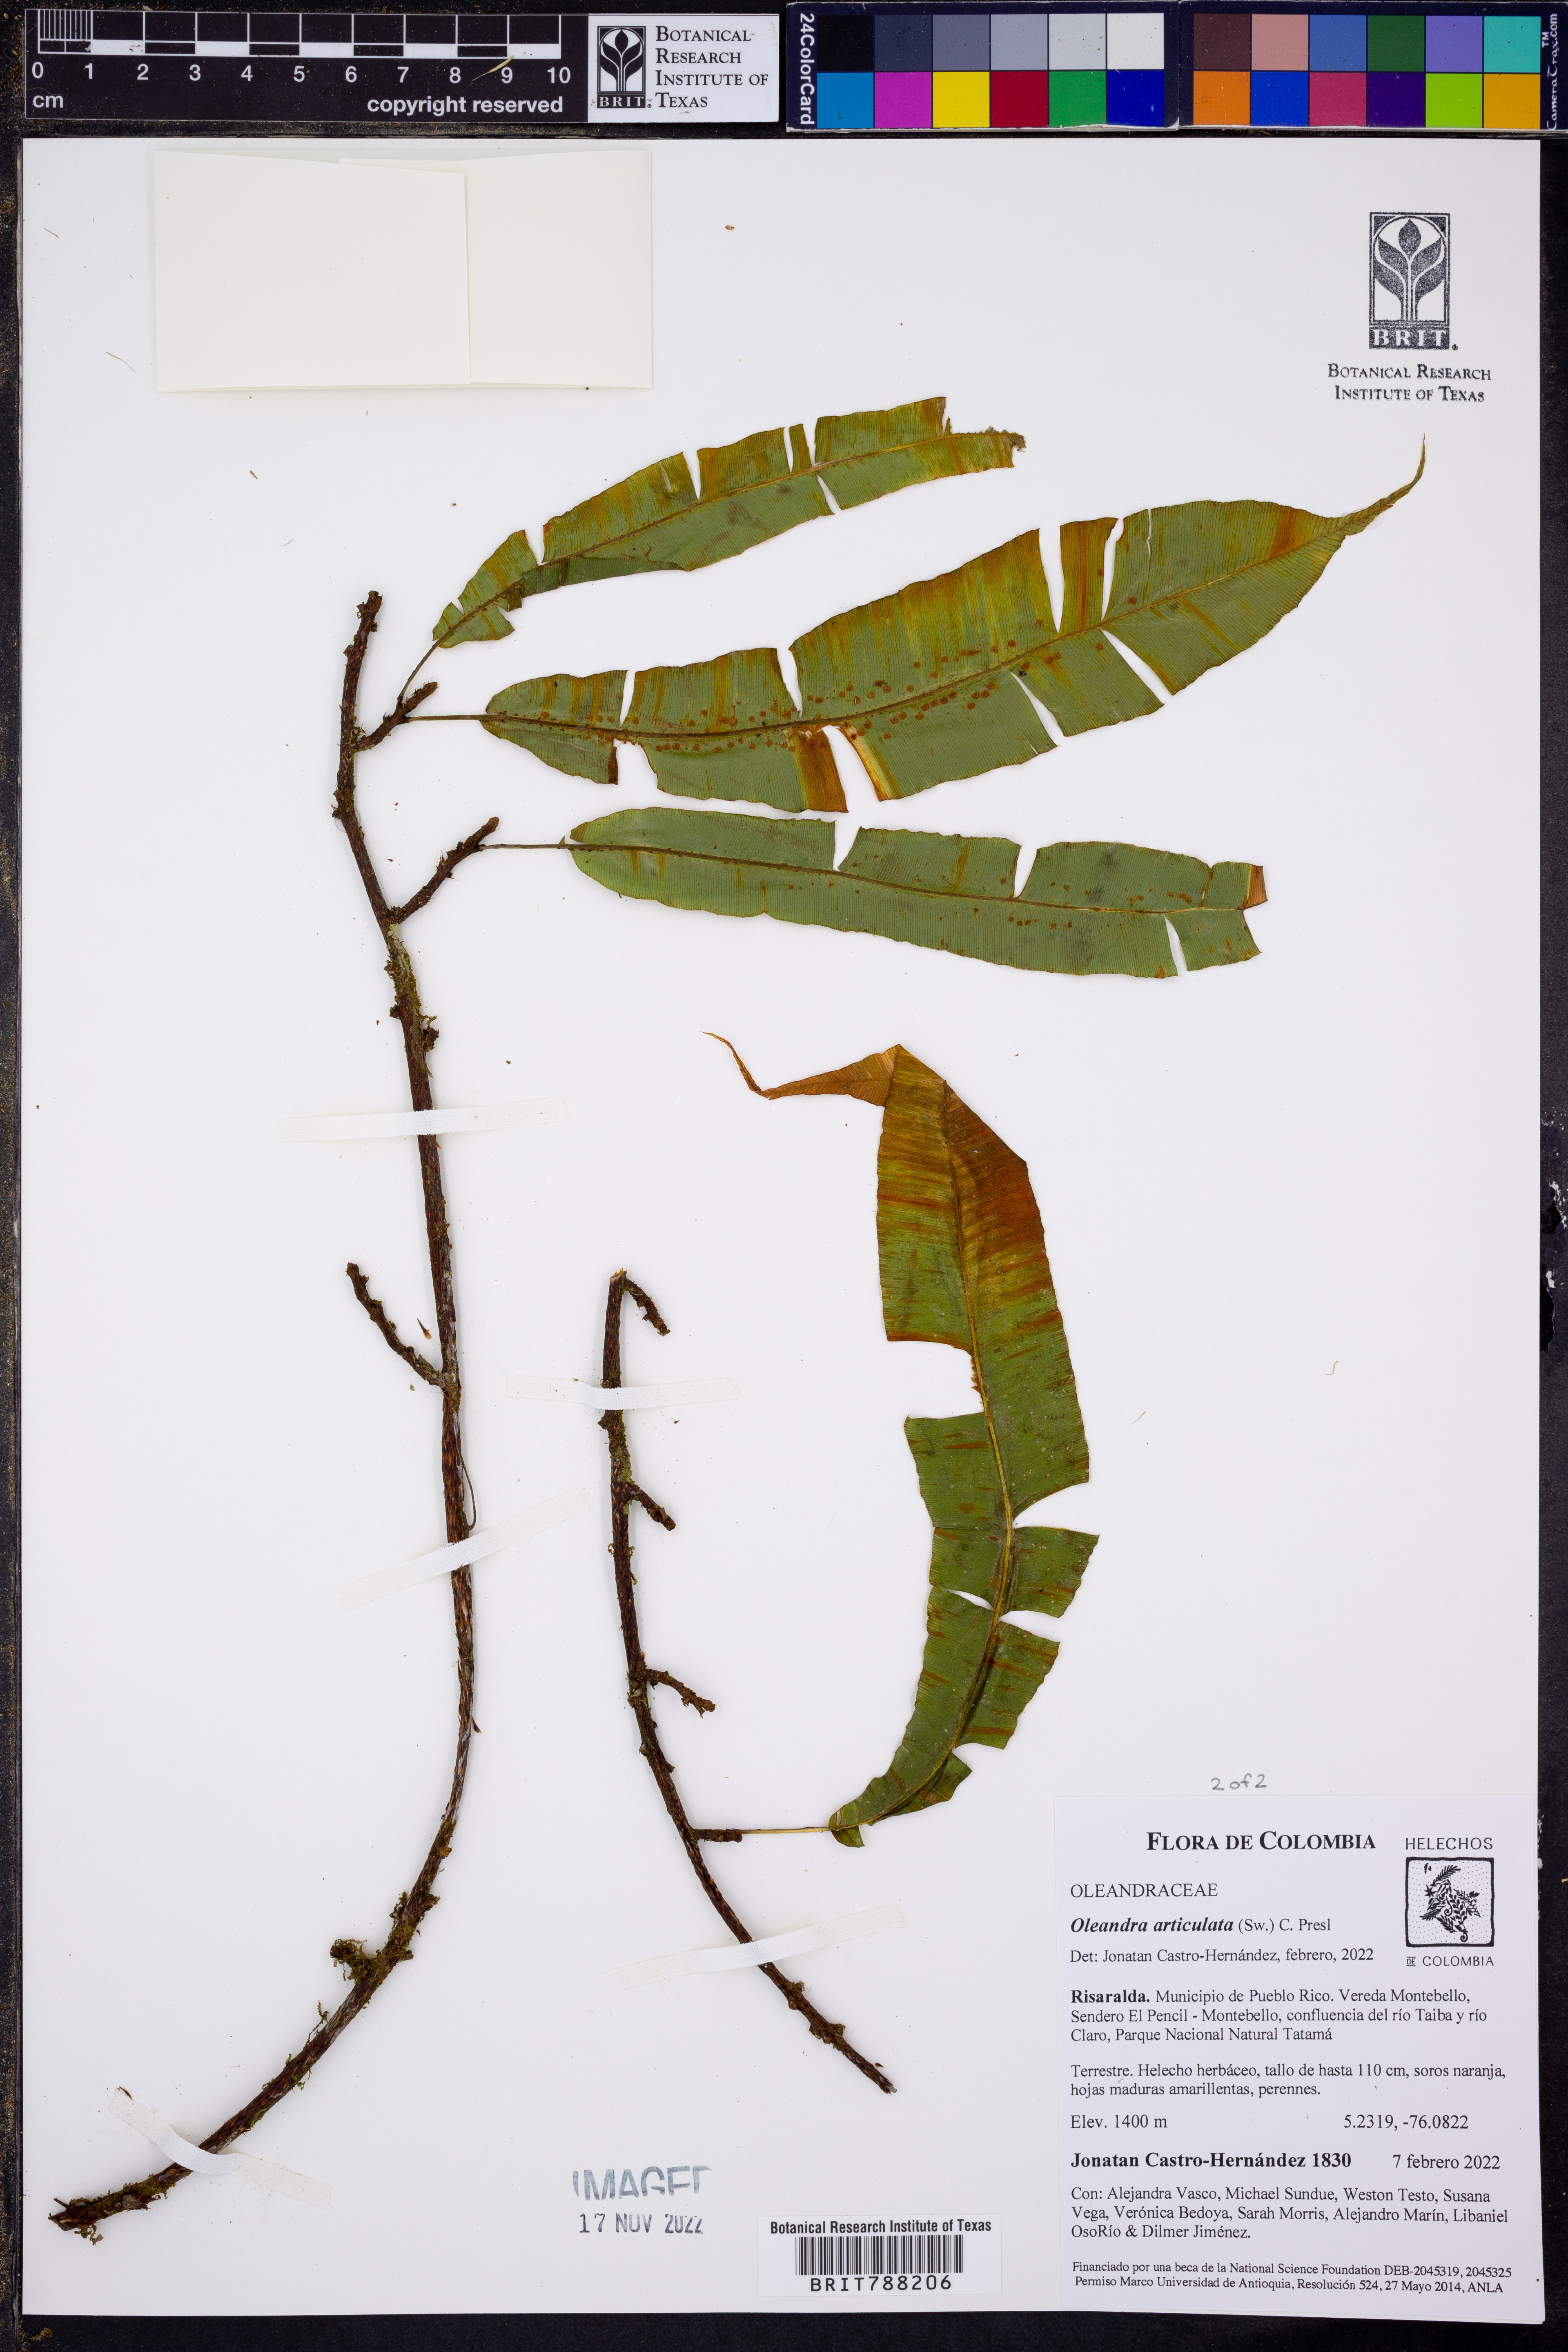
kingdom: Plantae
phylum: Tracheophyta
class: Polypodiopsida
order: Polypodiales
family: Oleandraceae
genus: Oleandra
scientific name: Oleandra articulata
